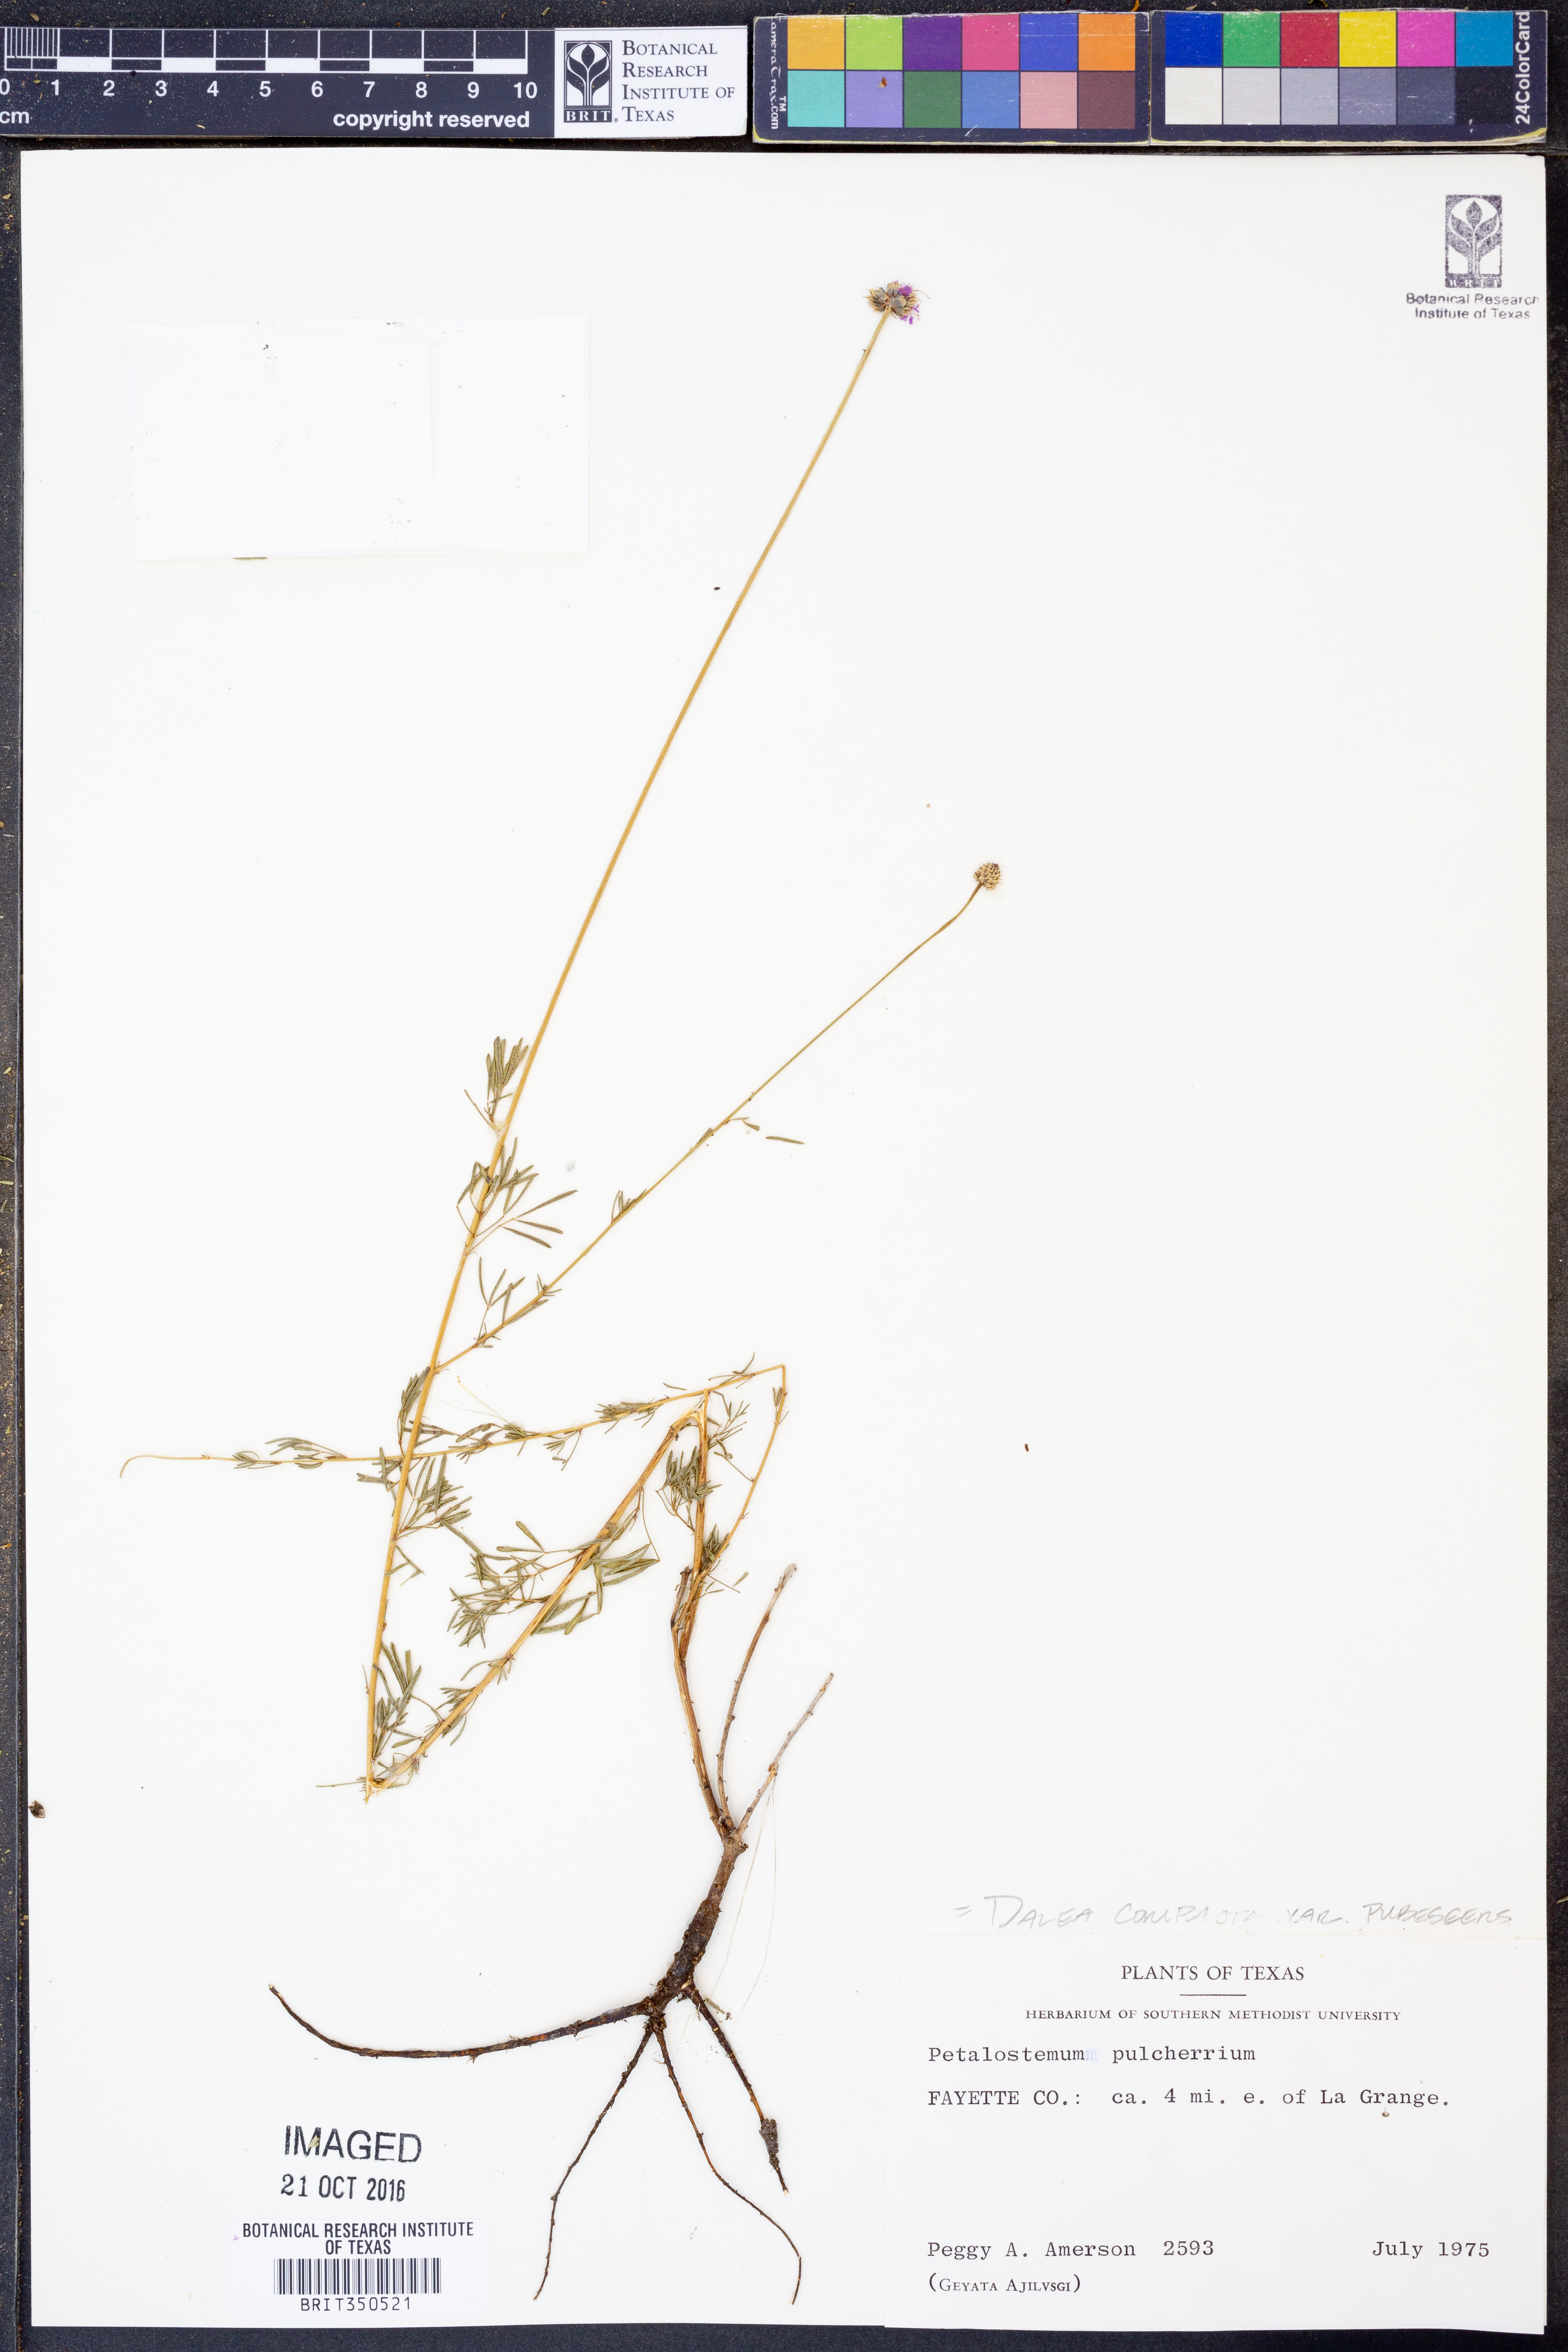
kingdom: Plantae
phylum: Tracheophyta
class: Magnoliopsida
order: Fabales
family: Fabaceae
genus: Dalea
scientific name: Dalea compacta
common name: Compact prairie-clover
